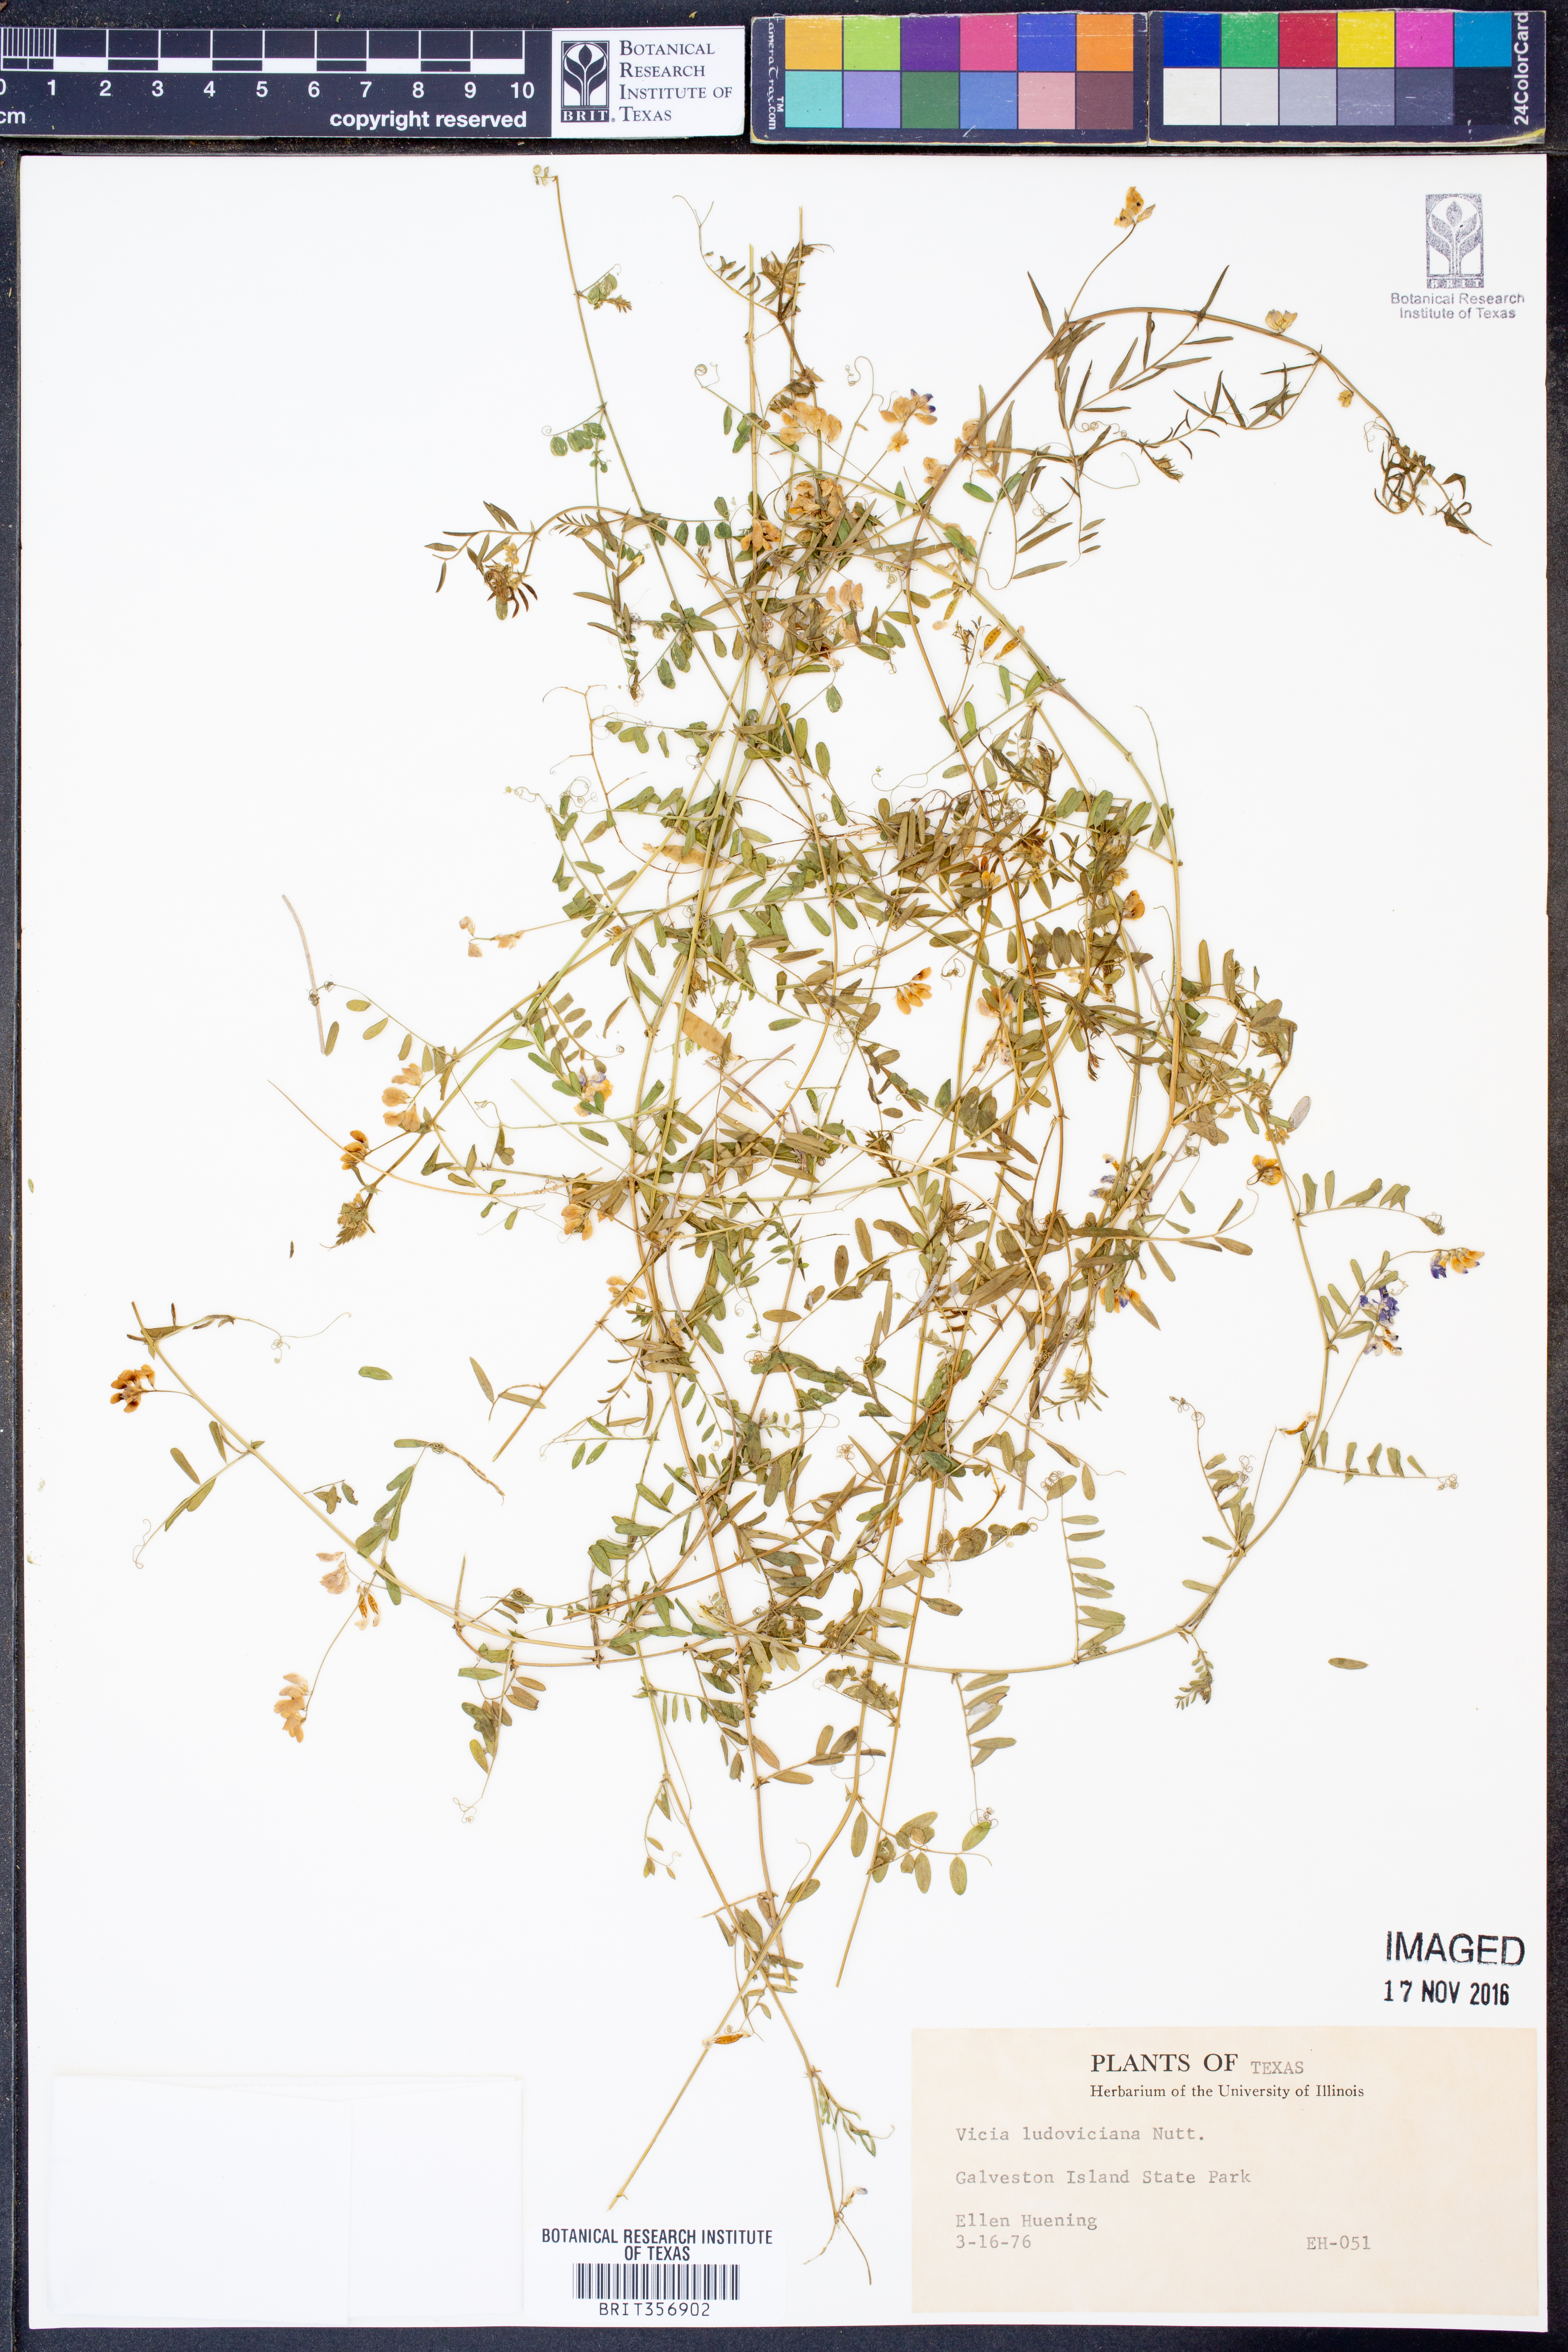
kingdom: Plantae
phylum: Tracheophyta
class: Magnoliopsida
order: Fabales
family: Fabaceae
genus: Vicia
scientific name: Vicia ludoviciana
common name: Louisiana vetch
